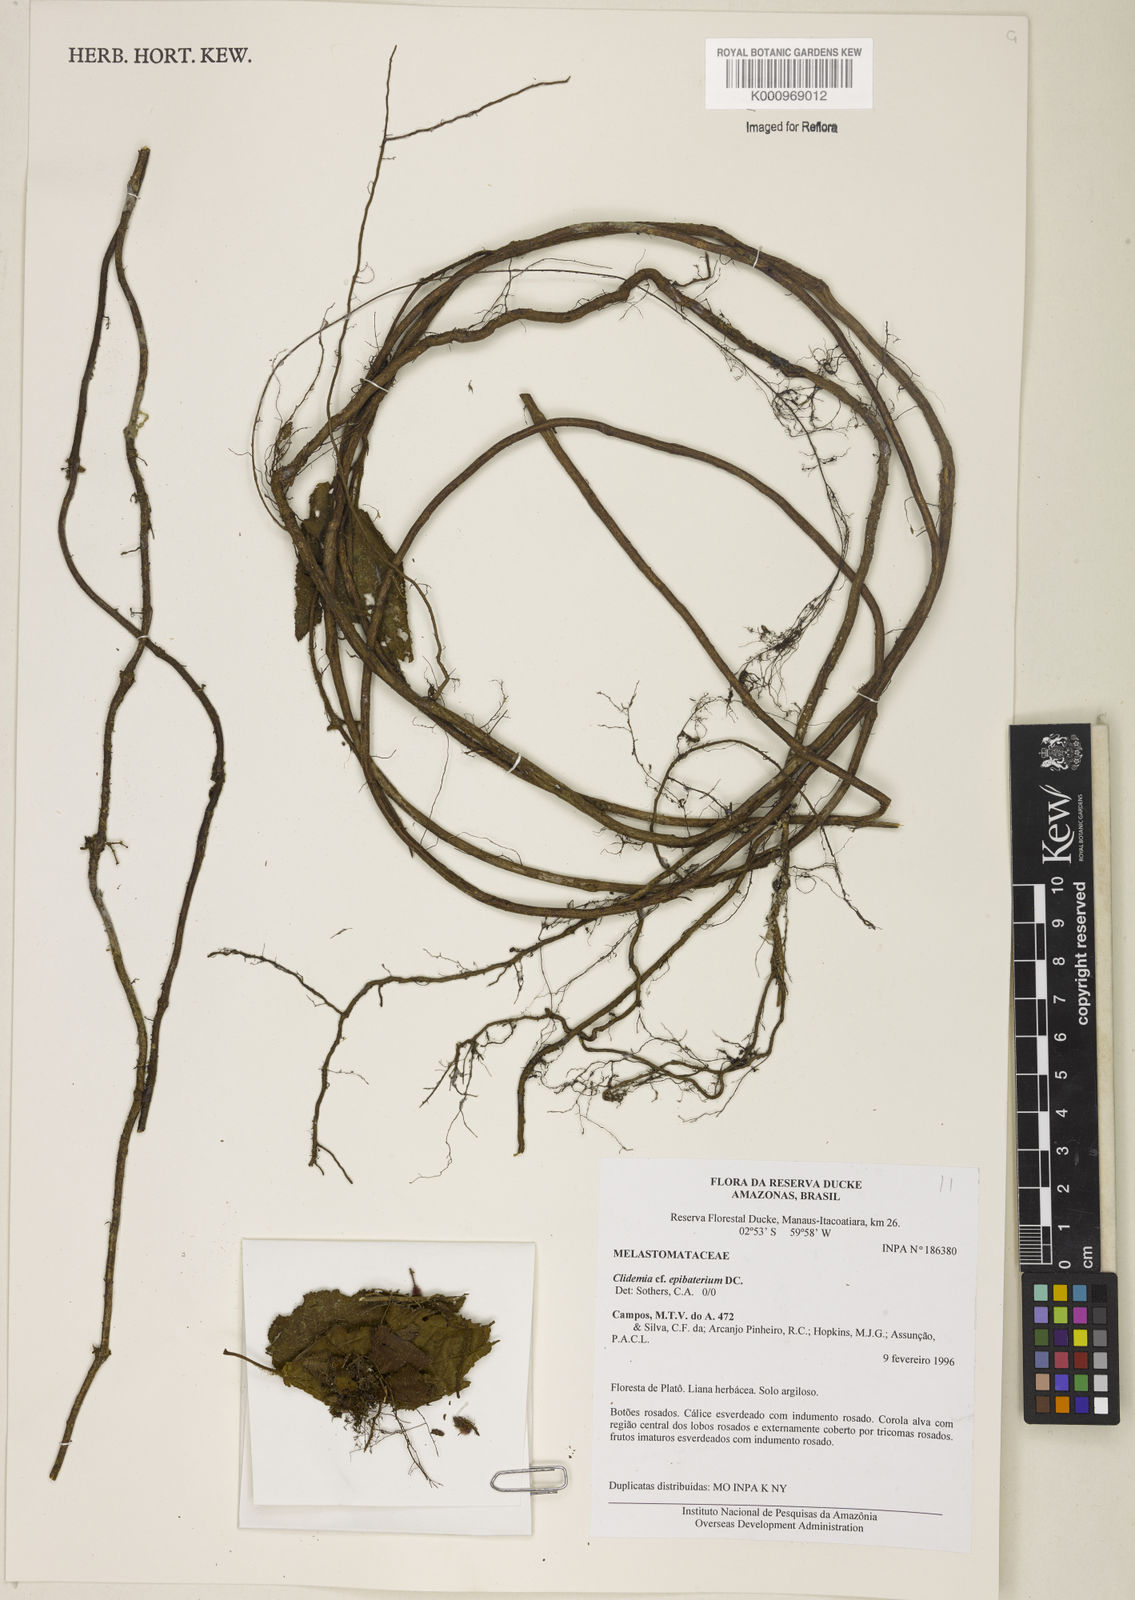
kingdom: Plantae
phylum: Tracheophyta
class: Magnoliopsida
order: Myrtales
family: Melastomataceae
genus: Miconia
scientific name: Miconia epibaterium
